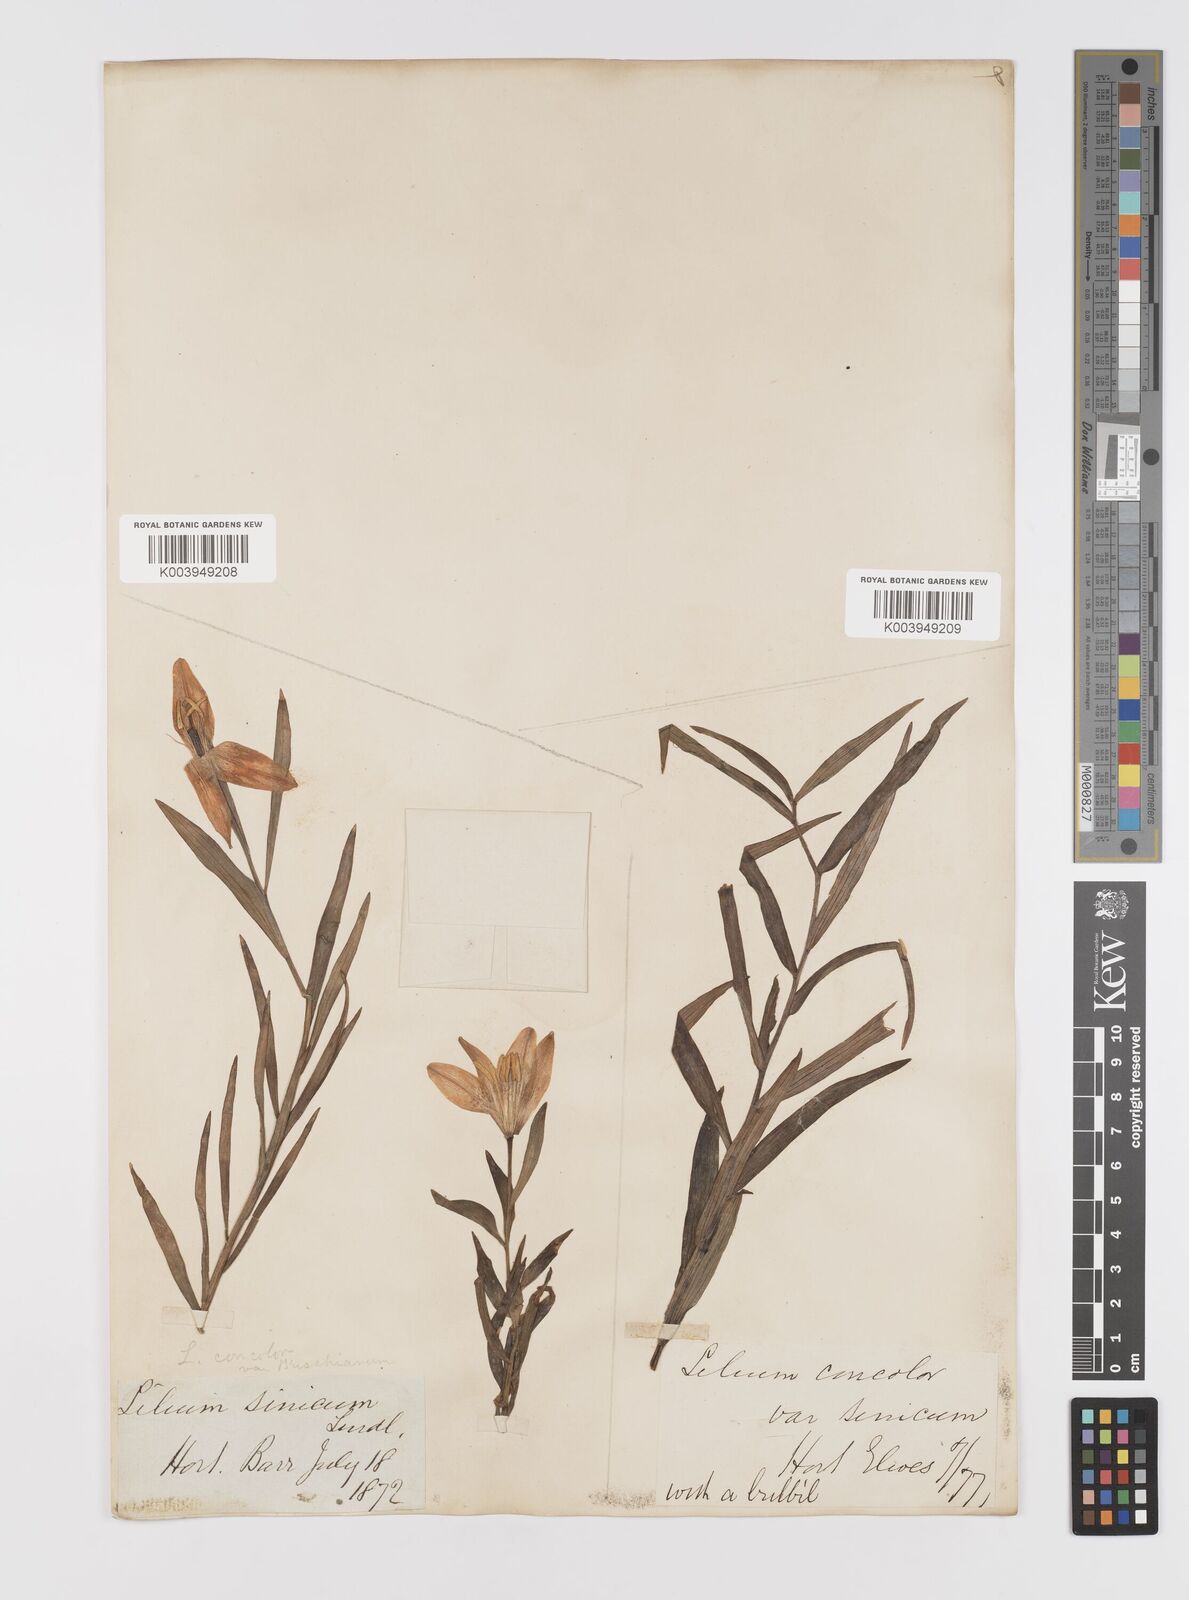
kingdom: Plantae
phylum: Tracheophyta
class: Liliopsida
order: Liliales
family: Liliaceae
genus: Lilium
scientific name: Lilium concolor
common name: Morning-star lily
